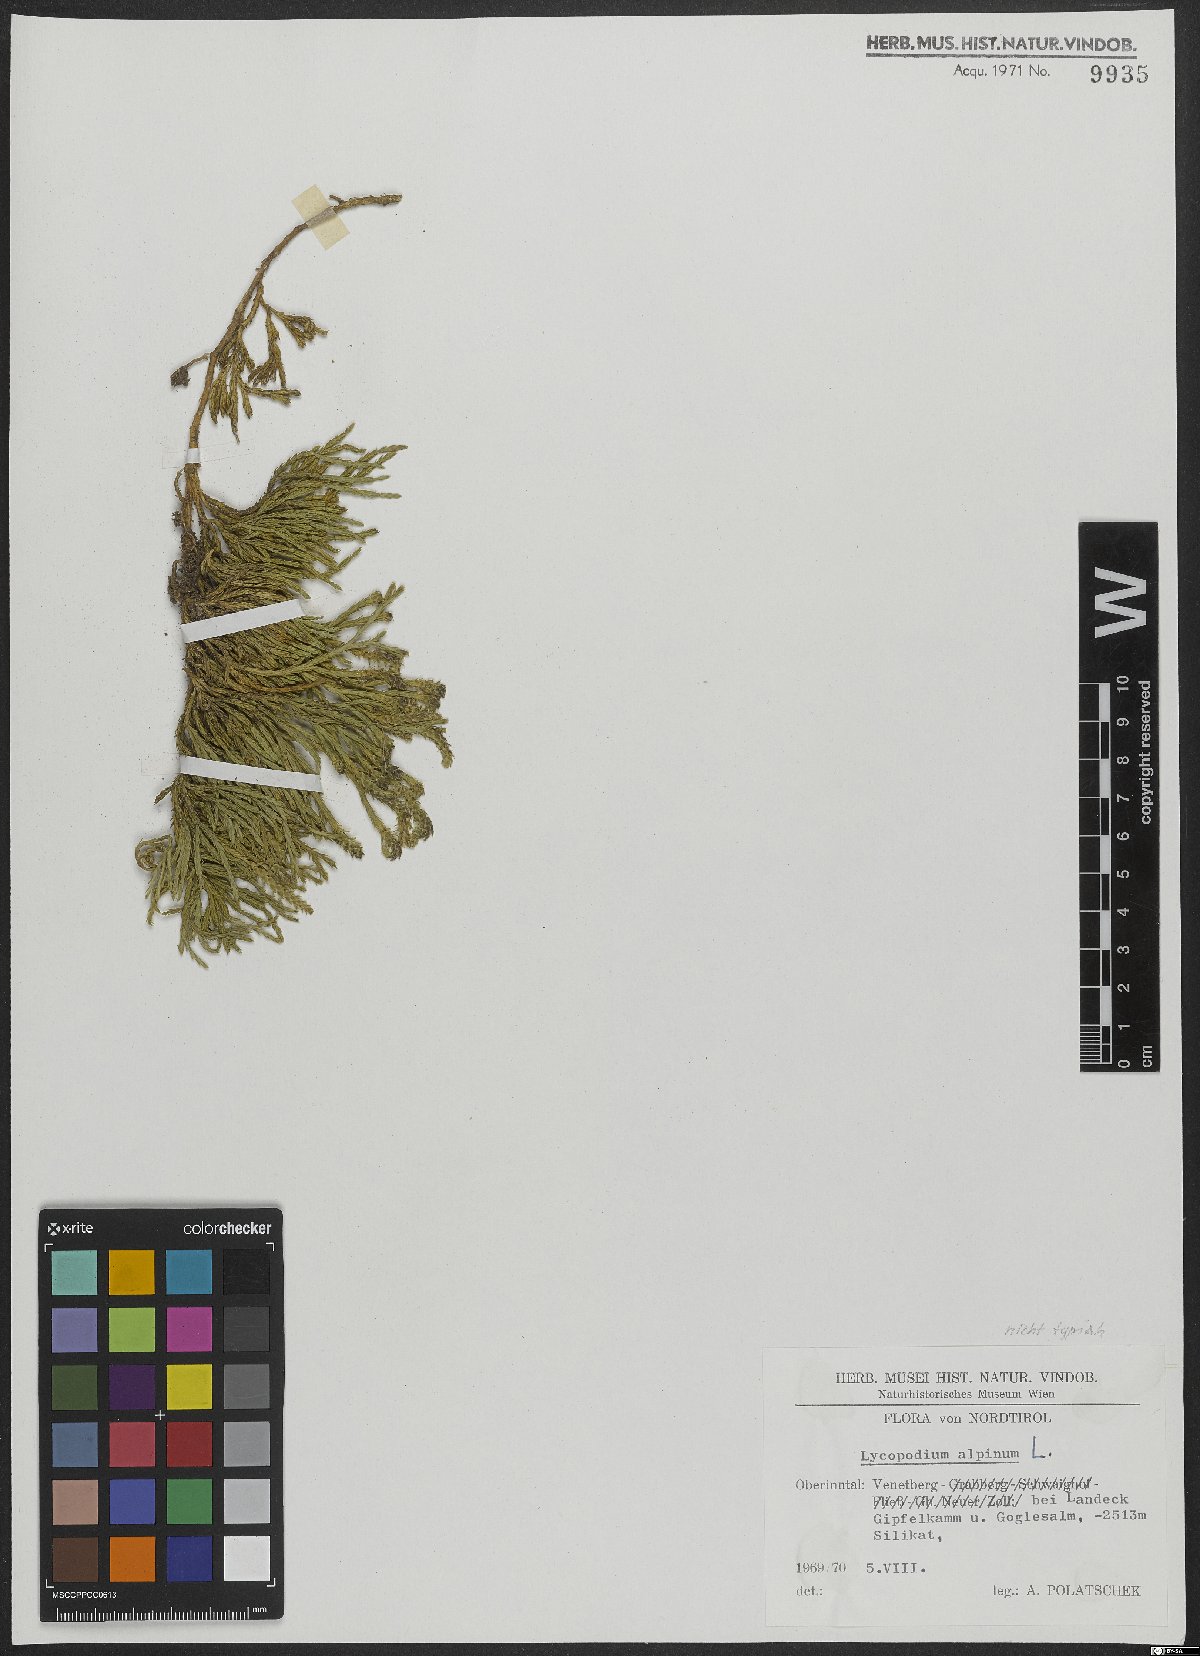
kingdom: Plantae
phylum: Tracheophyta
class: Lycopodiopsida
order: Lycopodiales
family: Lycopodiaceae
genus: Diphasiastrum
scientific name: Diphasiastrum alpinum
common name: Alpine clubmoss
